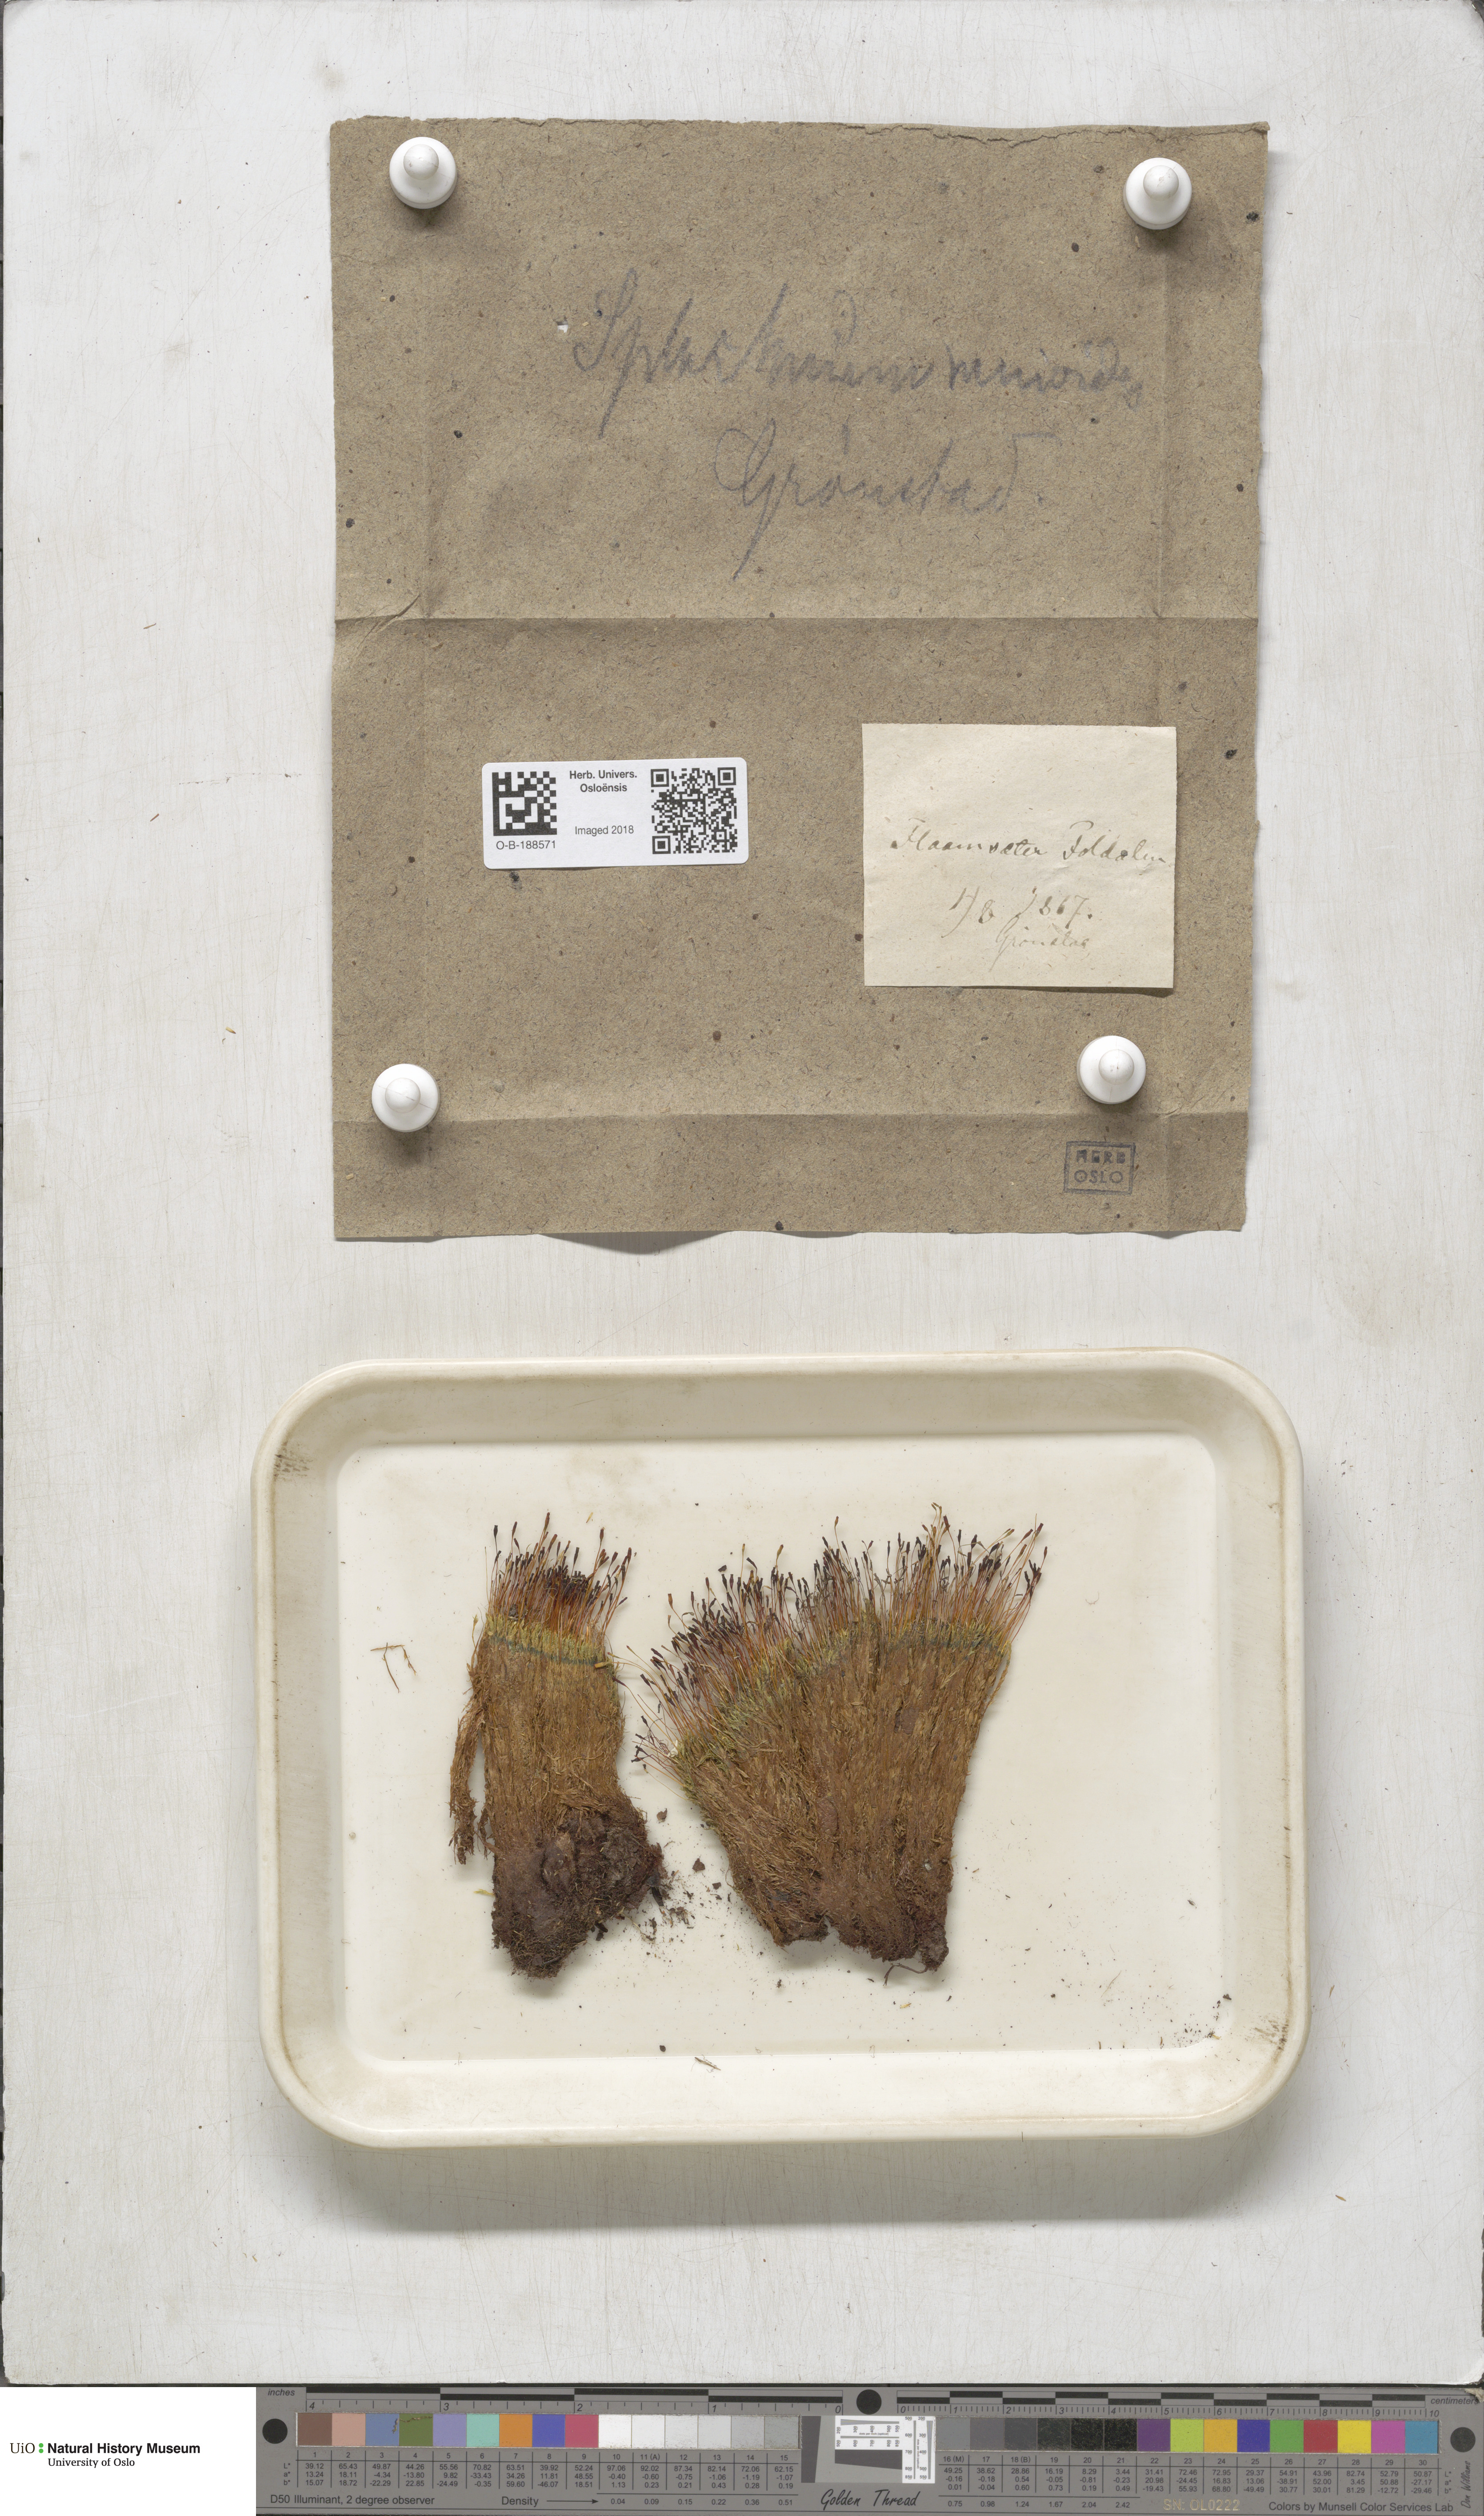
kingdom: Plantae
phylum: Bryophyta
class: Bryopsida
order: Splachnales
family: Splachnaceae
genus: Tetraplodon
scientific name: Tetraplodon mnioides
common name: Entire-leaved nitrogen moss
